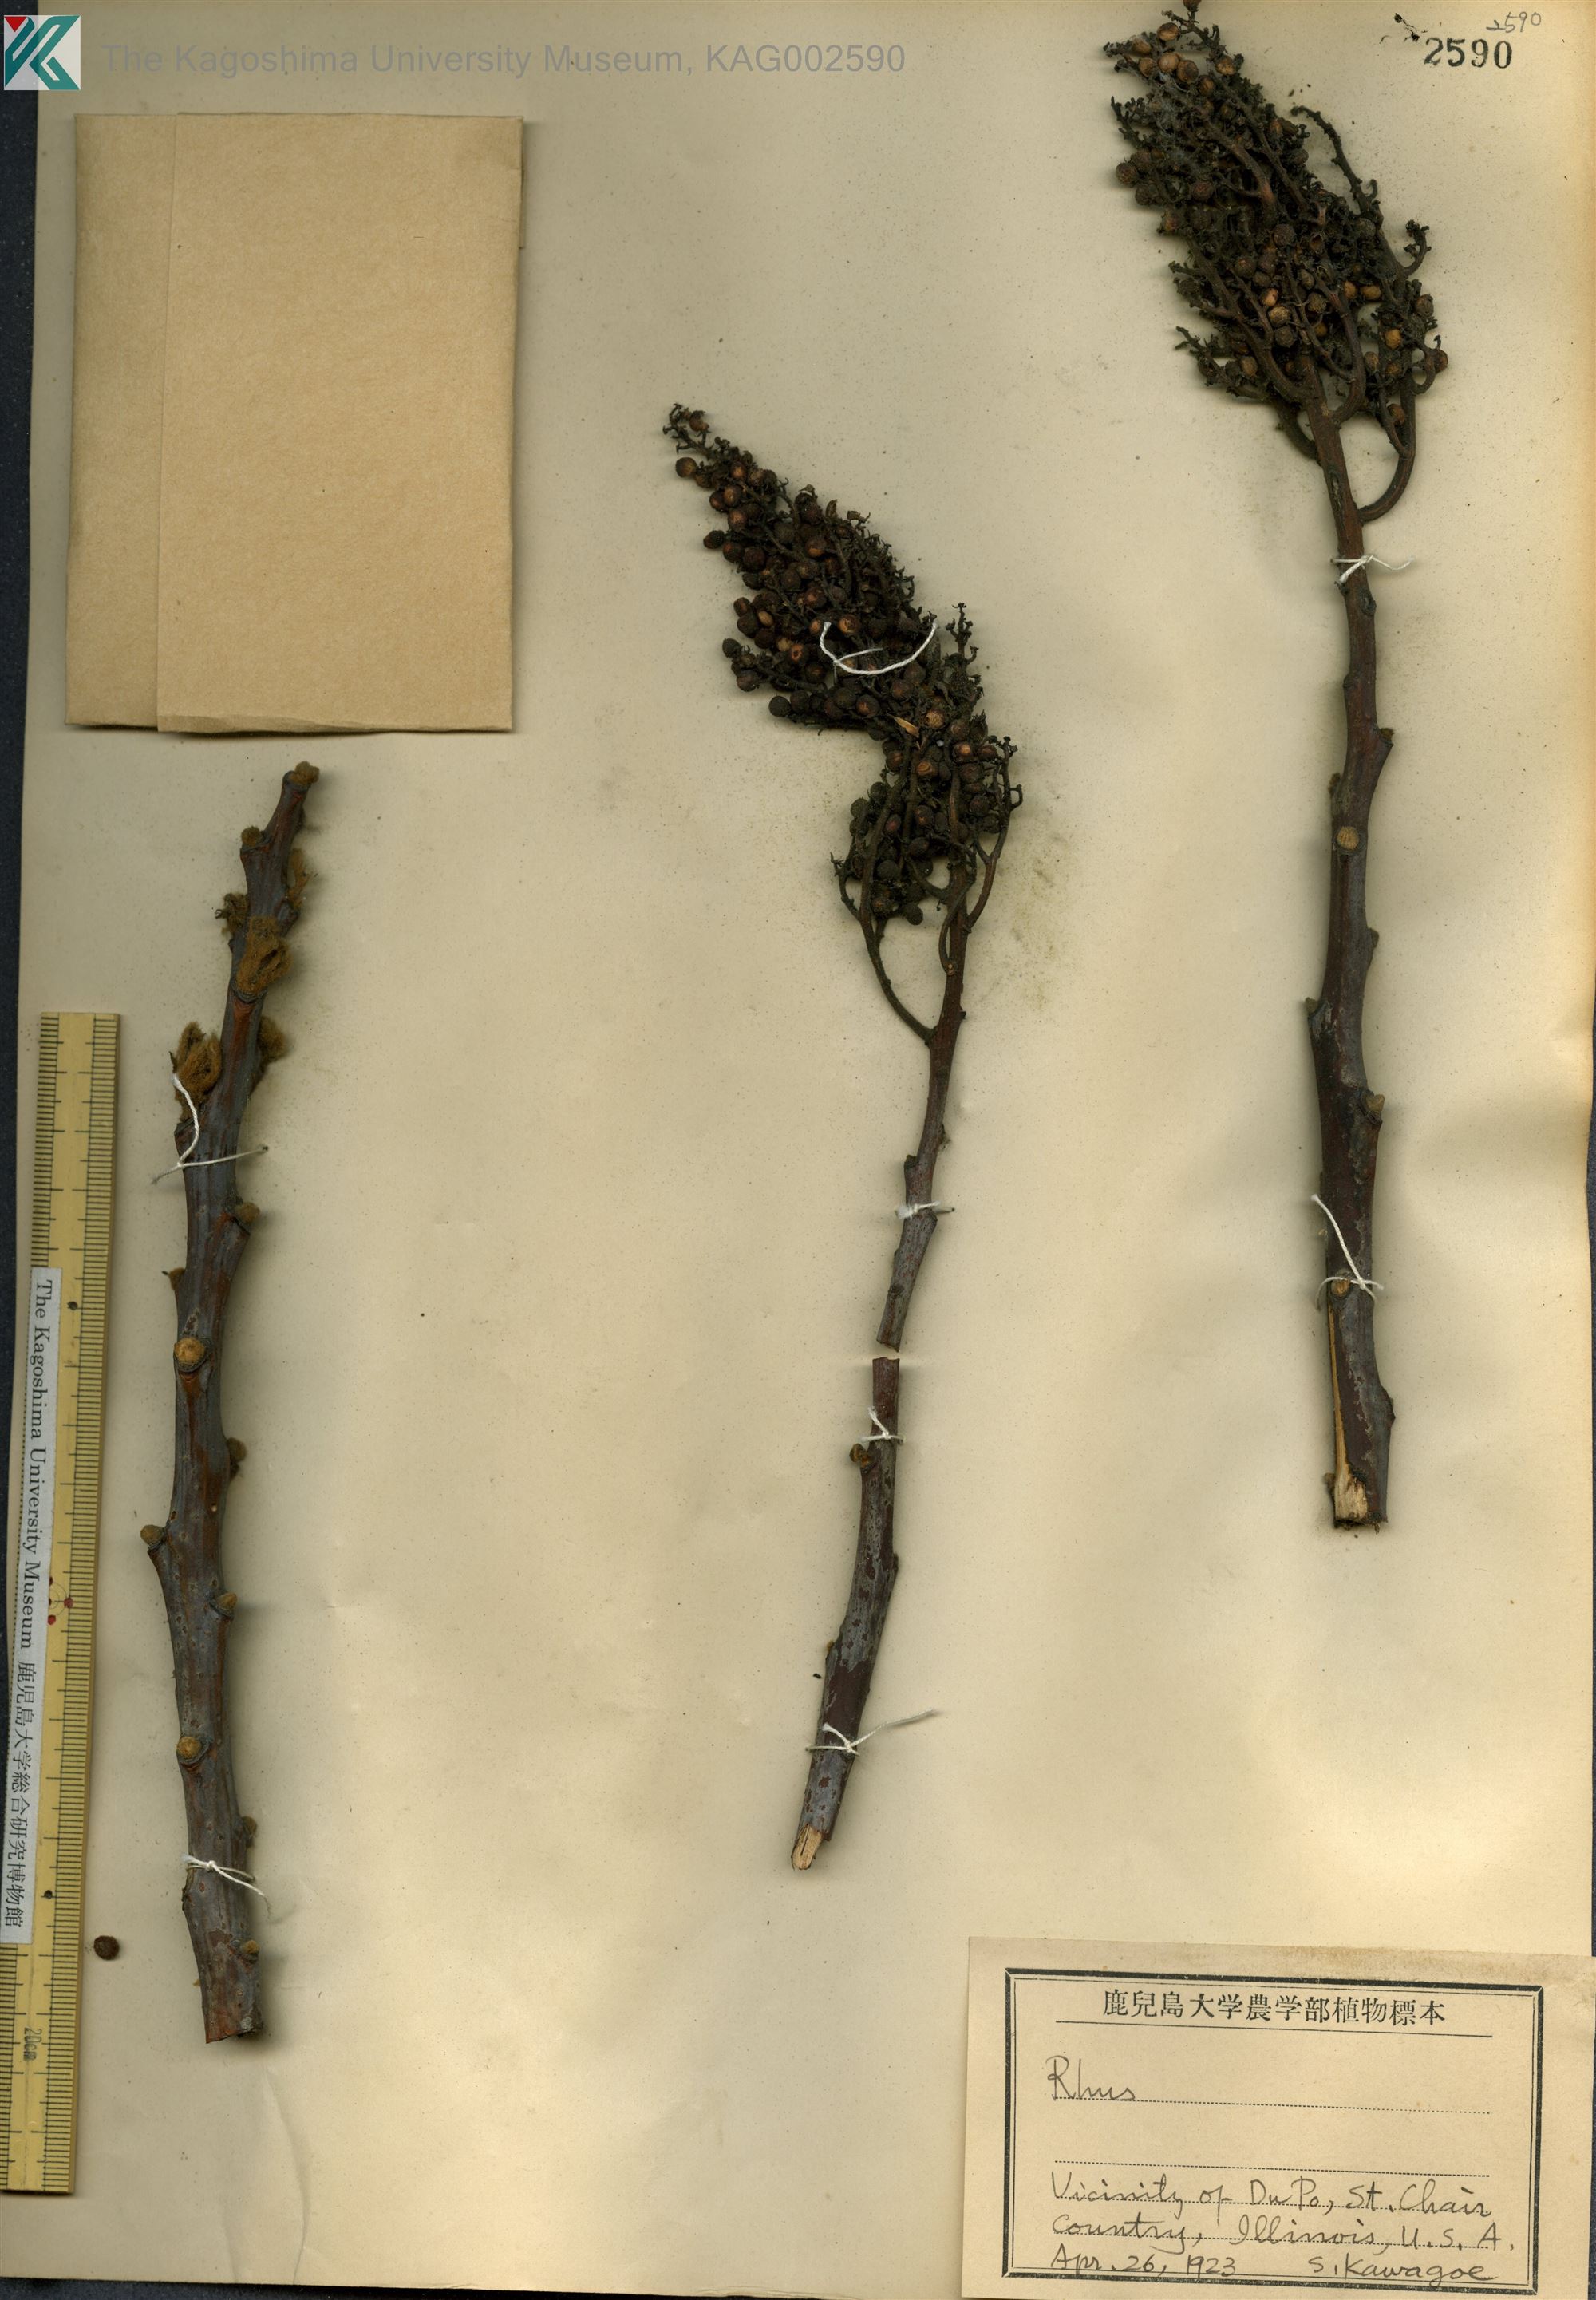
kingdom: Plantae
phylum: Tracheophyta
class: Magnoliopsida
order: Sapindales
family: Anacardiaceae
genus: Rhus
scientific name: Rhus
